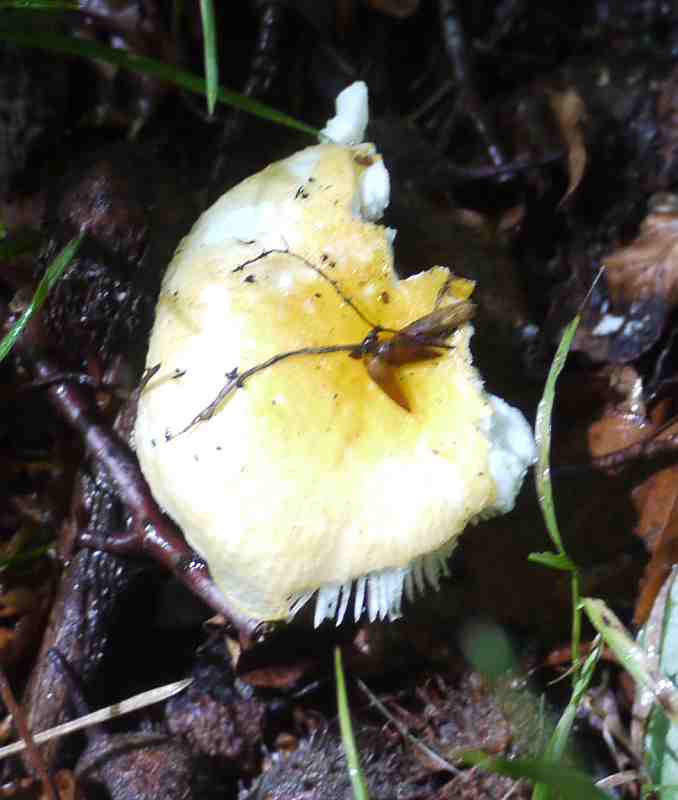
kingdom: Fungi
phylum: Basidiomycota
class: Agaricomycetes
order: Russulales
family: Russulaceae
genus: Russula
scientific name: Russula solaris
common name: sol-skørhat
